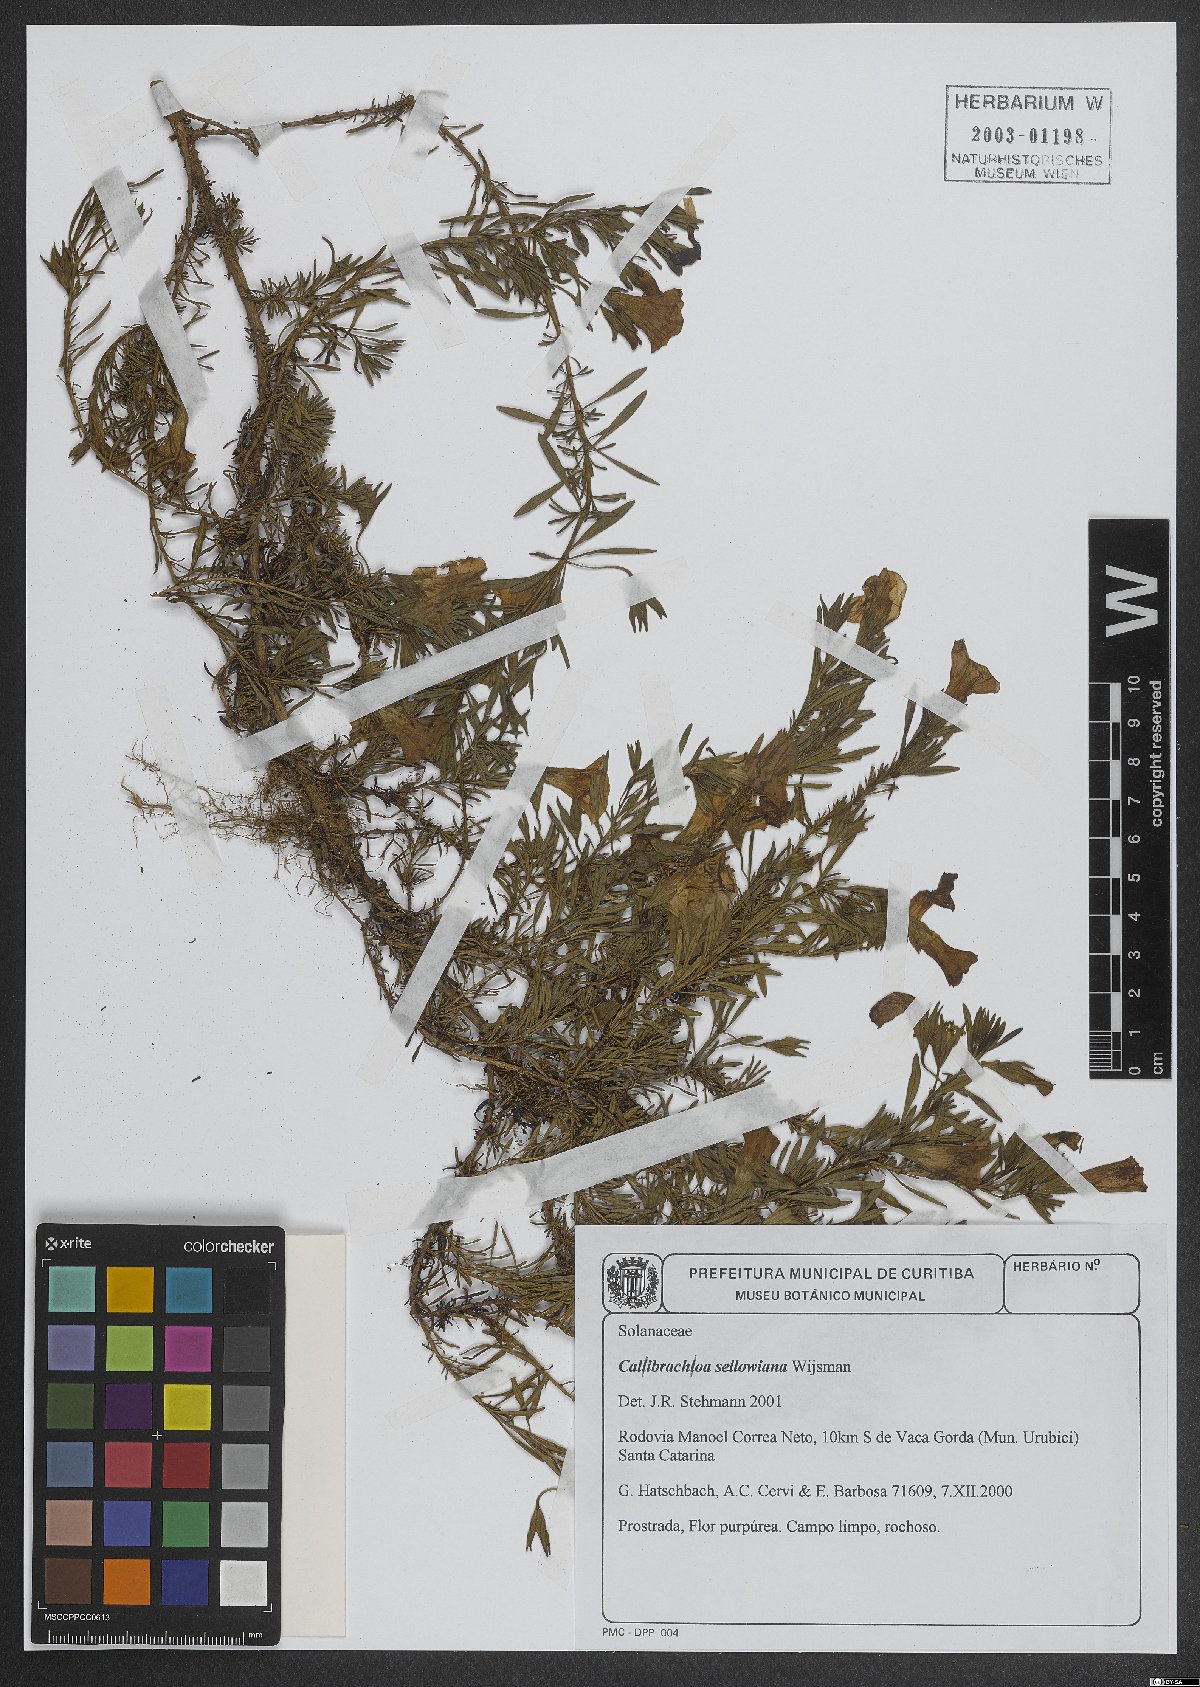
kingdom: Plantae
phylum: Tracheophyta
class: Magnoliopsida
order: Solanales
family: Solanaceae
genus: Calibrachoa
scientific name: Calibrachoa sellowiana
